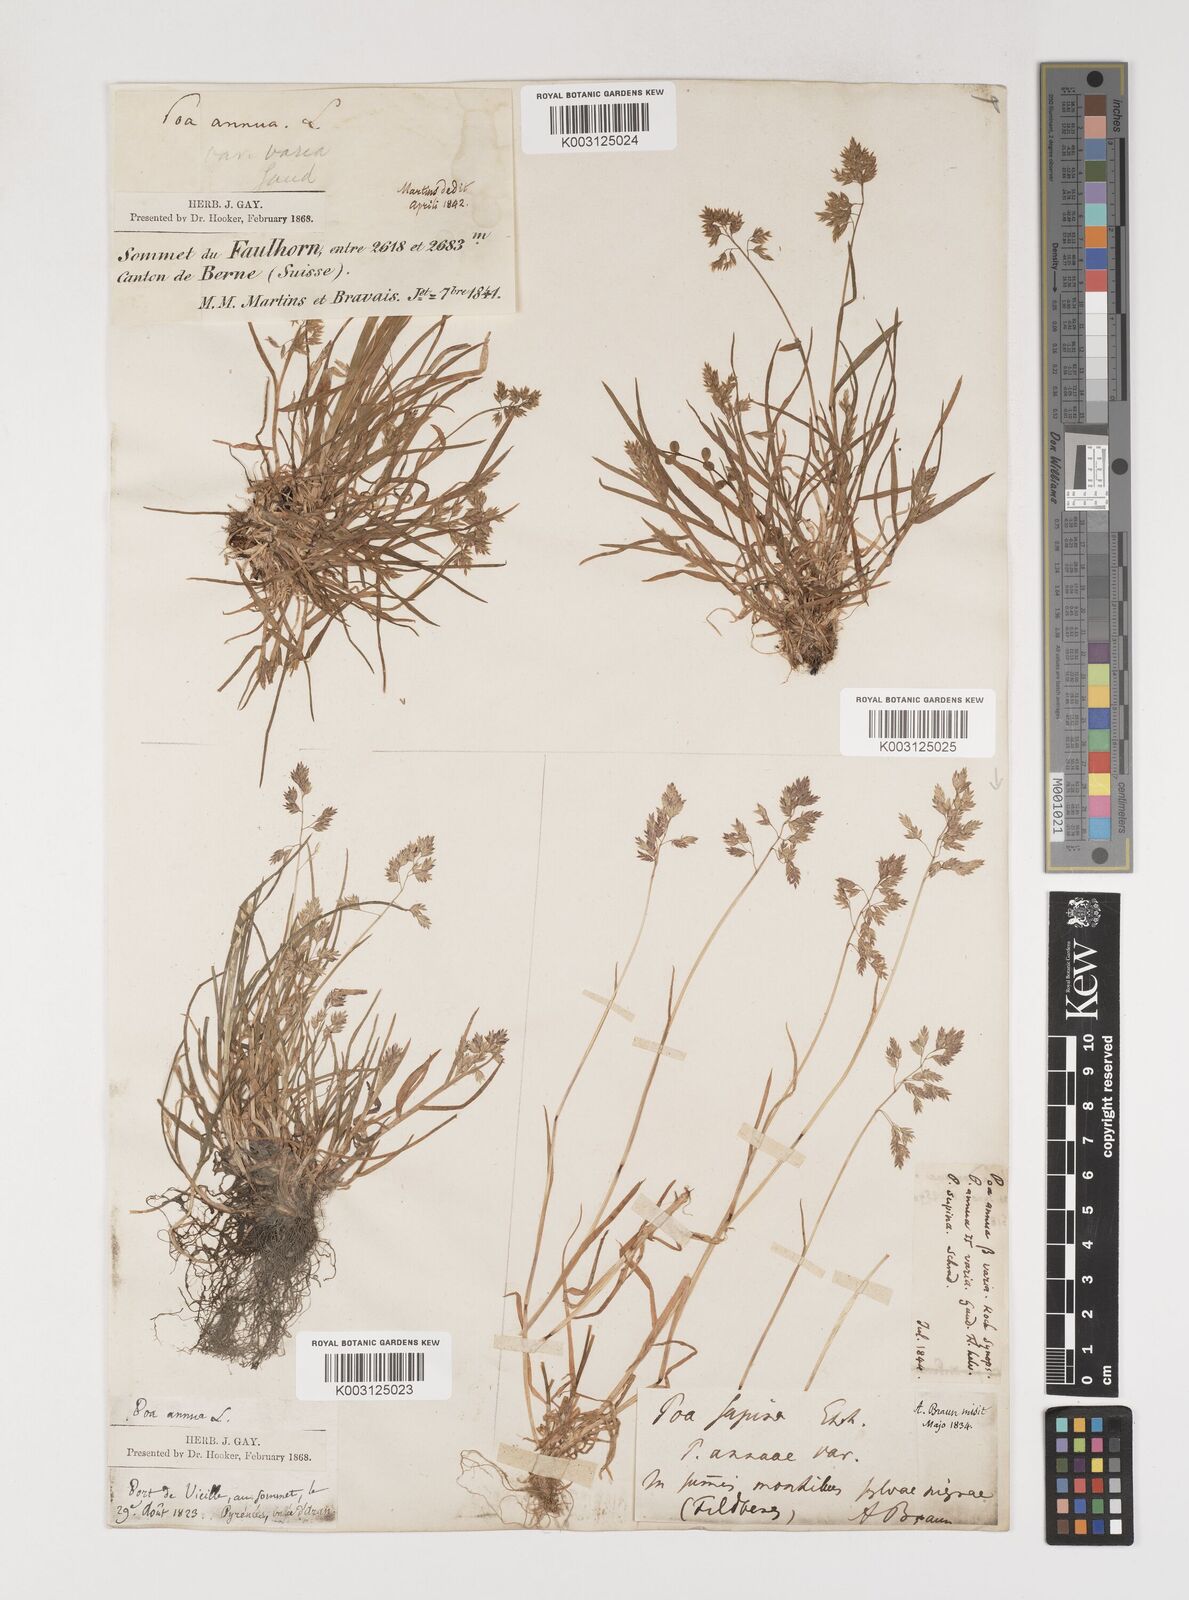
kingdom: Plantae
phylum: Tracheophyta
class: Liliopsida
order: Poales
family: Poaceae
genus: Poa
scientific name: Poa supina
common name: Supina bluegrass
